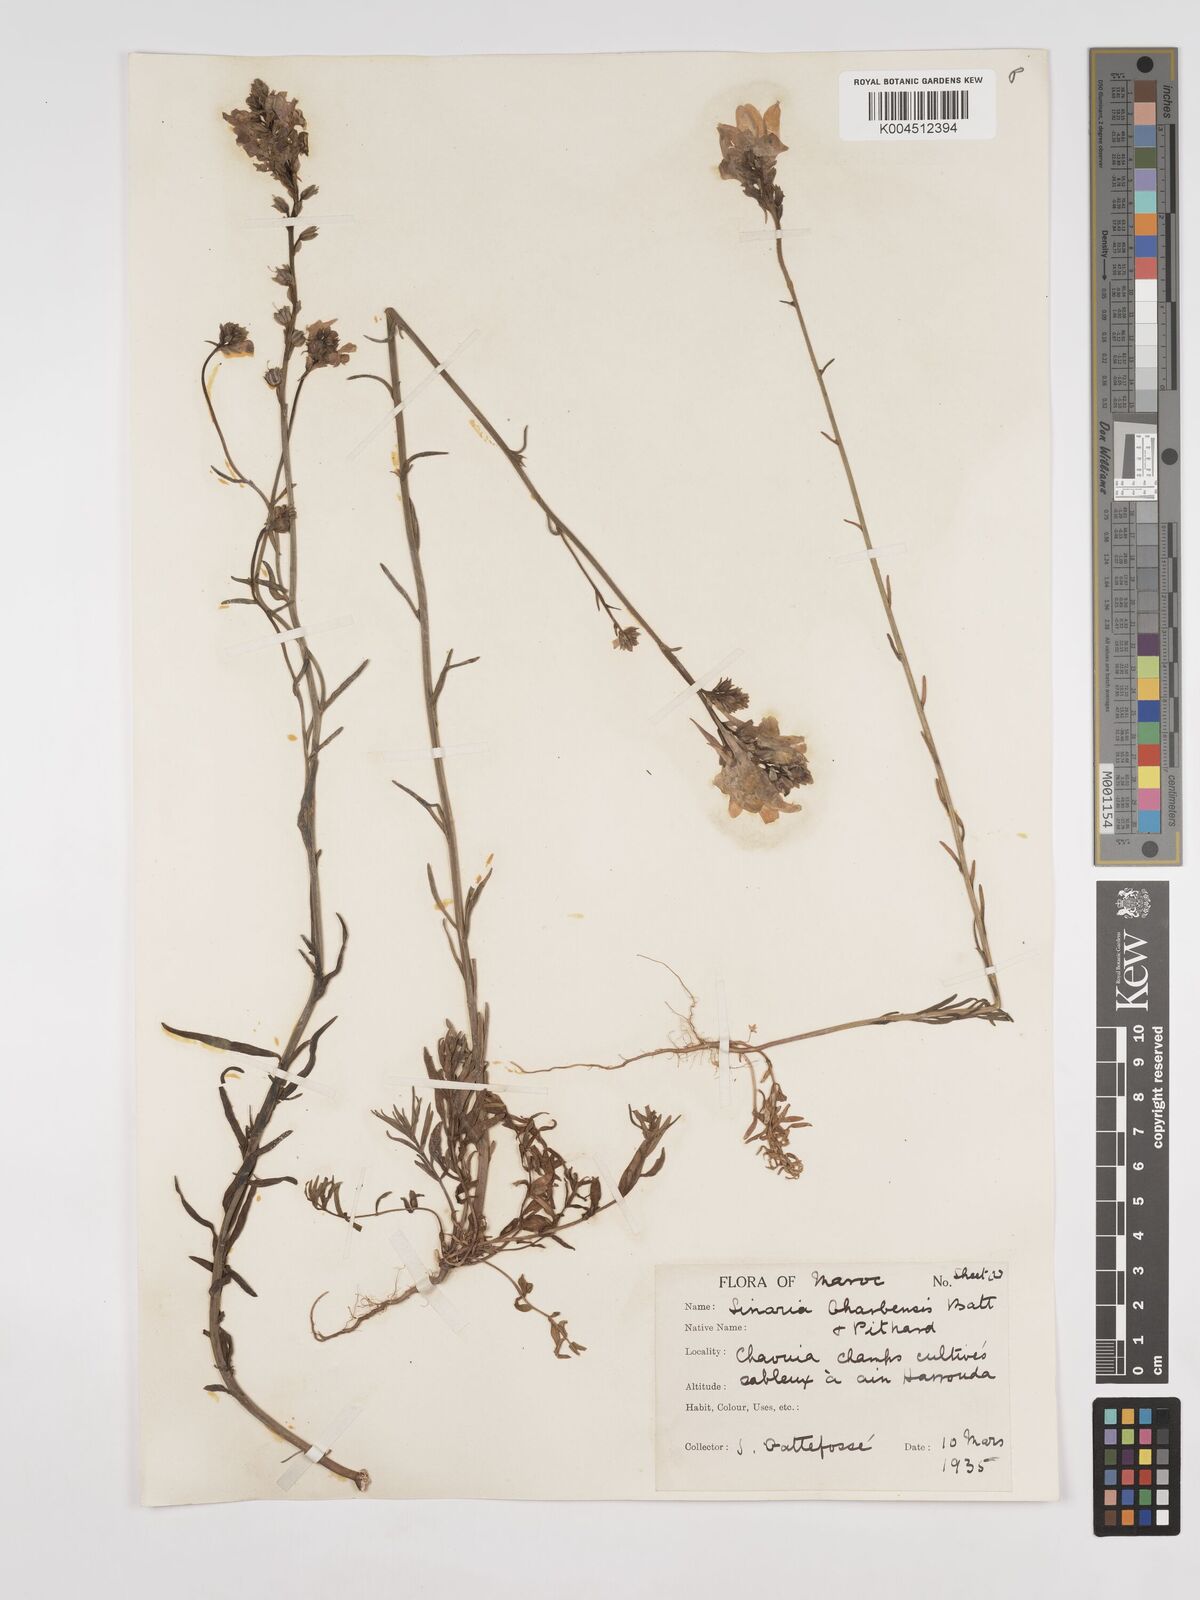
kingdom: Plantae
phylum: Tracheophyta
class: Magnoliopsida
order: Lamiales
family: Plantaginaceae
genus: Linaria
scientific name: Linaria gharbensis
